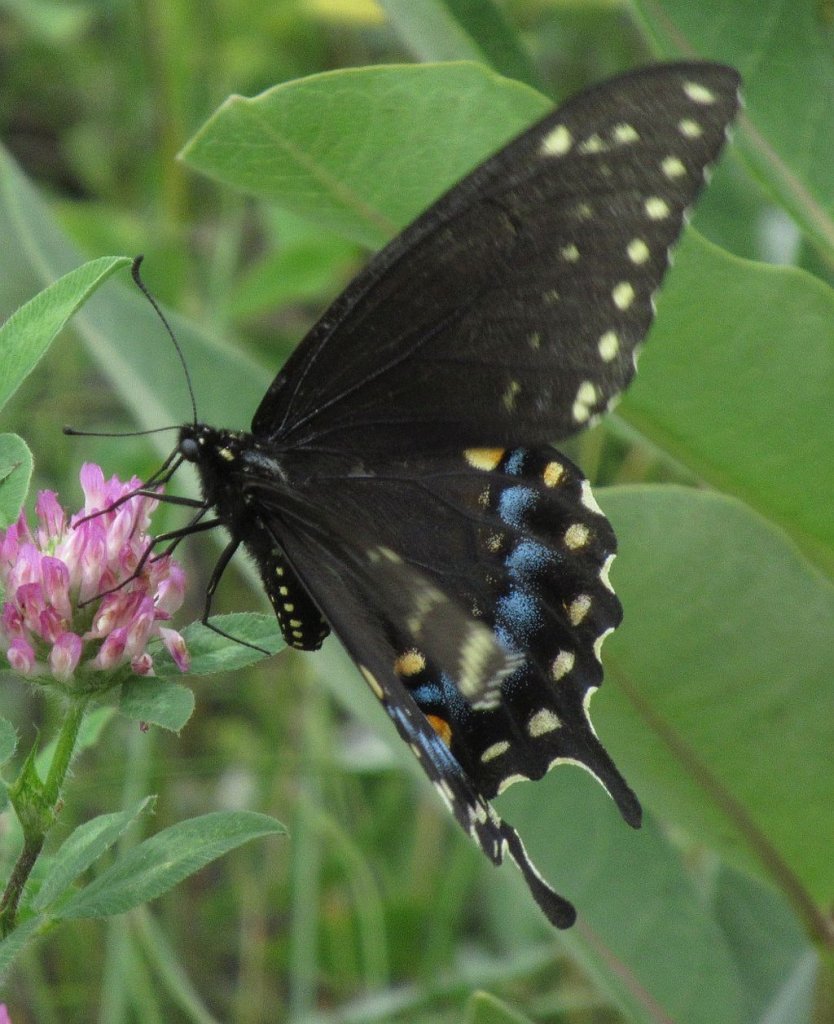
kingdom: Animalia
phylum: Arthropoda
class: Insecta
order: Lepidoptera
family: Papilionidae
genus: Papilio
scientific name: Papilio polyxenes
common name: Black Swallowtail
